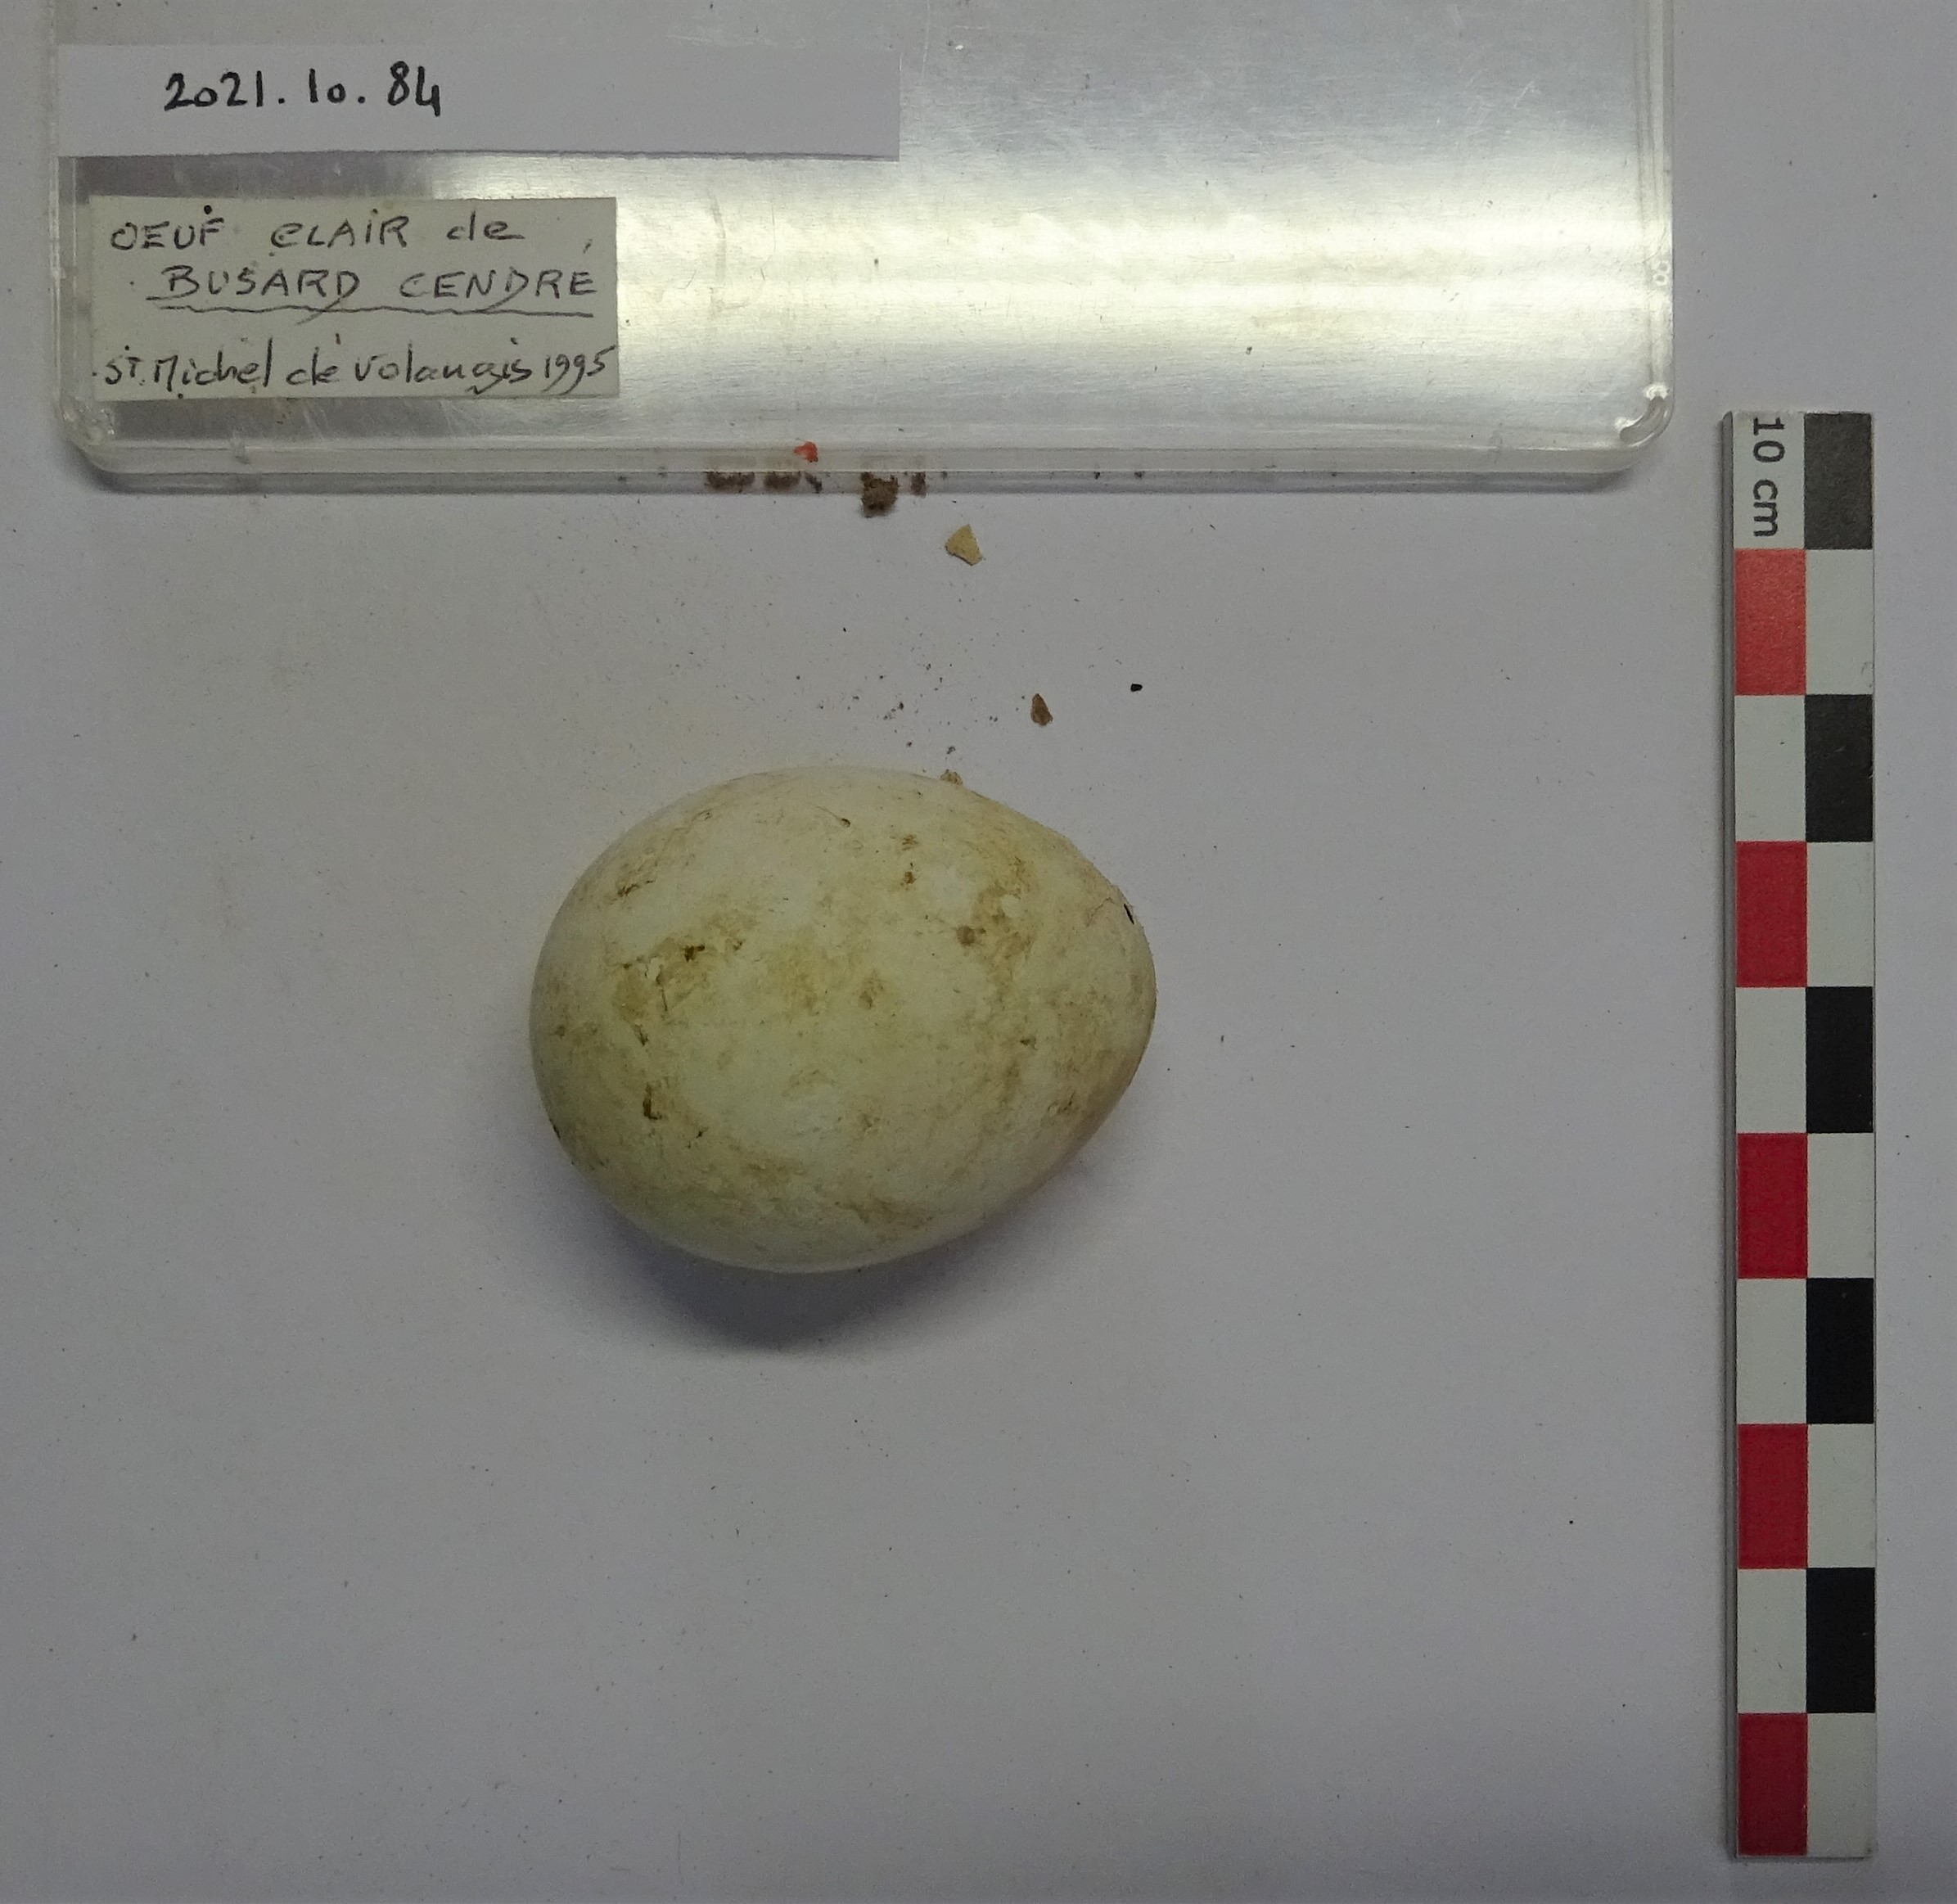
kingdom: Animalia
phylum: Chordata
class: Aves
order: Accipitriformes
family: Accipitridae
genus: Circus
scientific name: Circus pygargus
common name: Montagu's harrier
